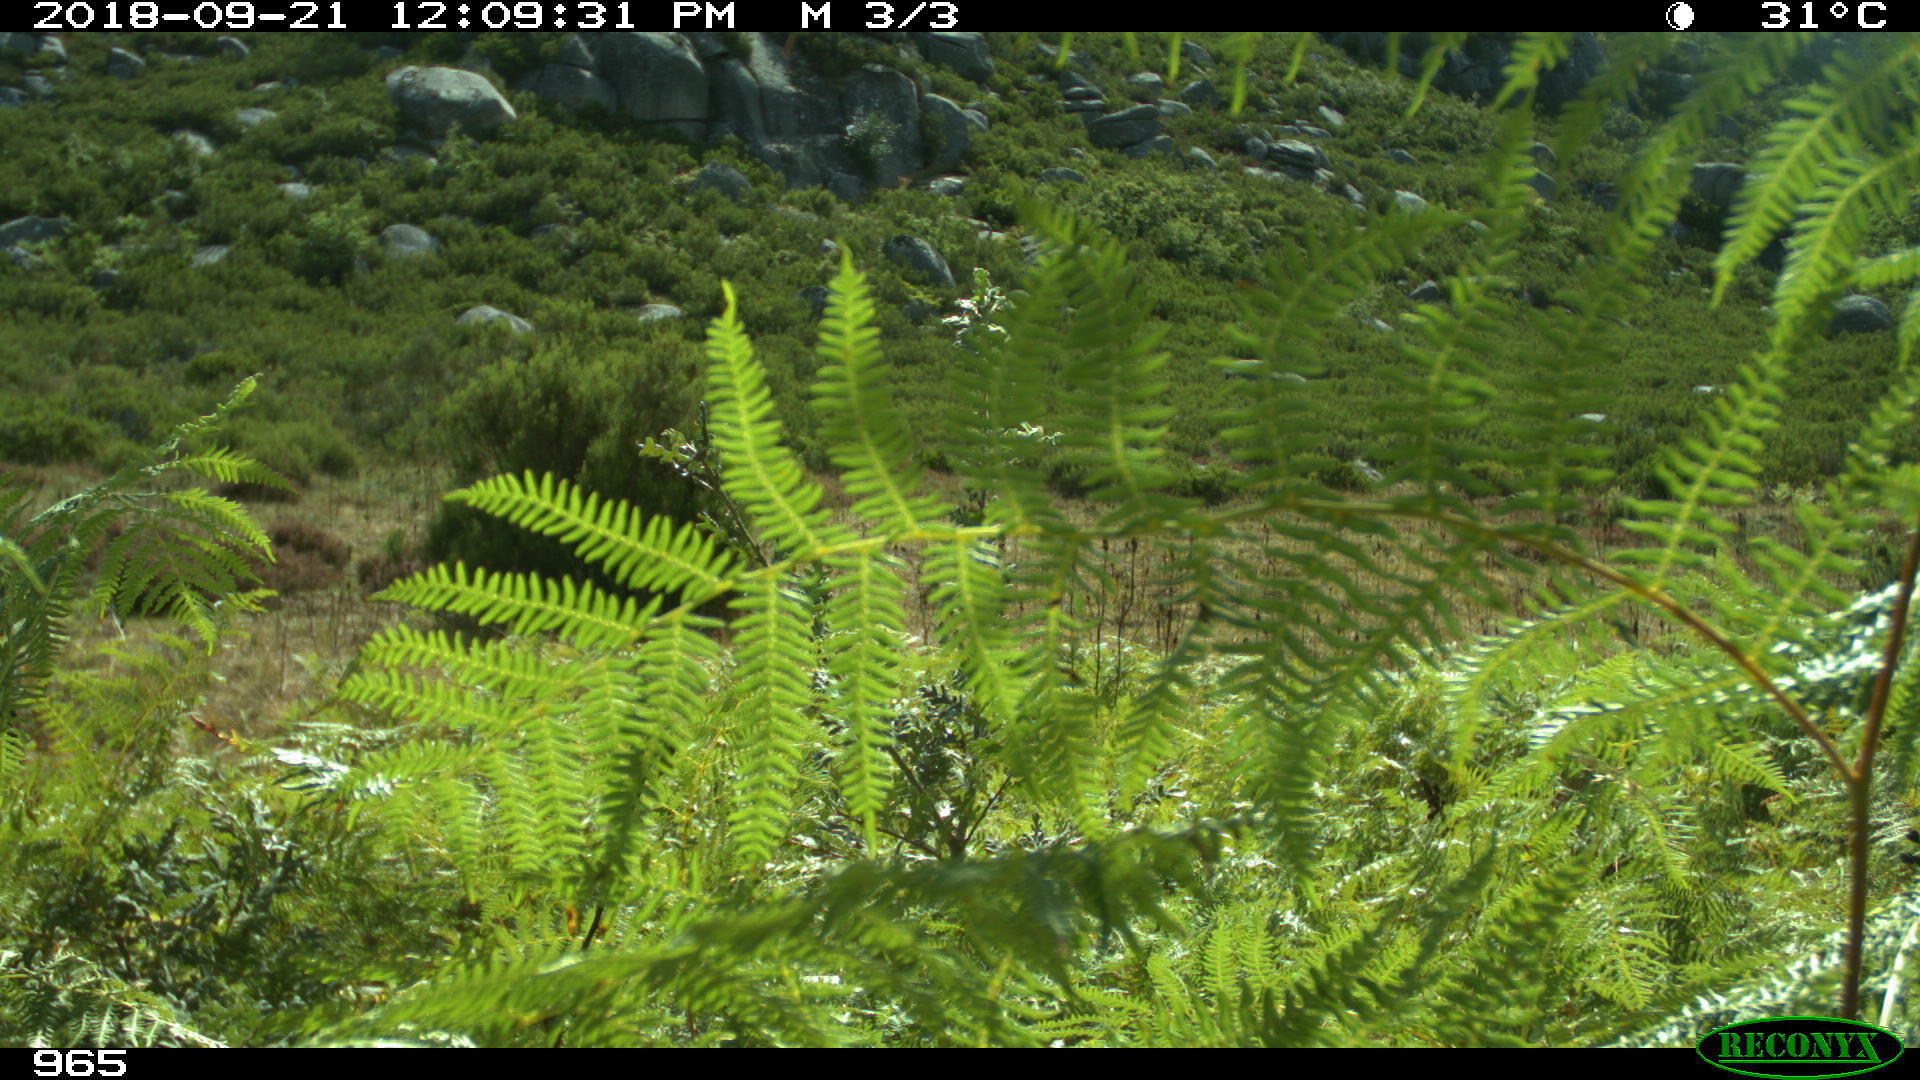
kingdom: Animalia
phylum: Chordata
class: Mammalia
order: Perissodactyla
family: Equidae
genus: Equus
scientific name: Equus caballus
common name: Horse
